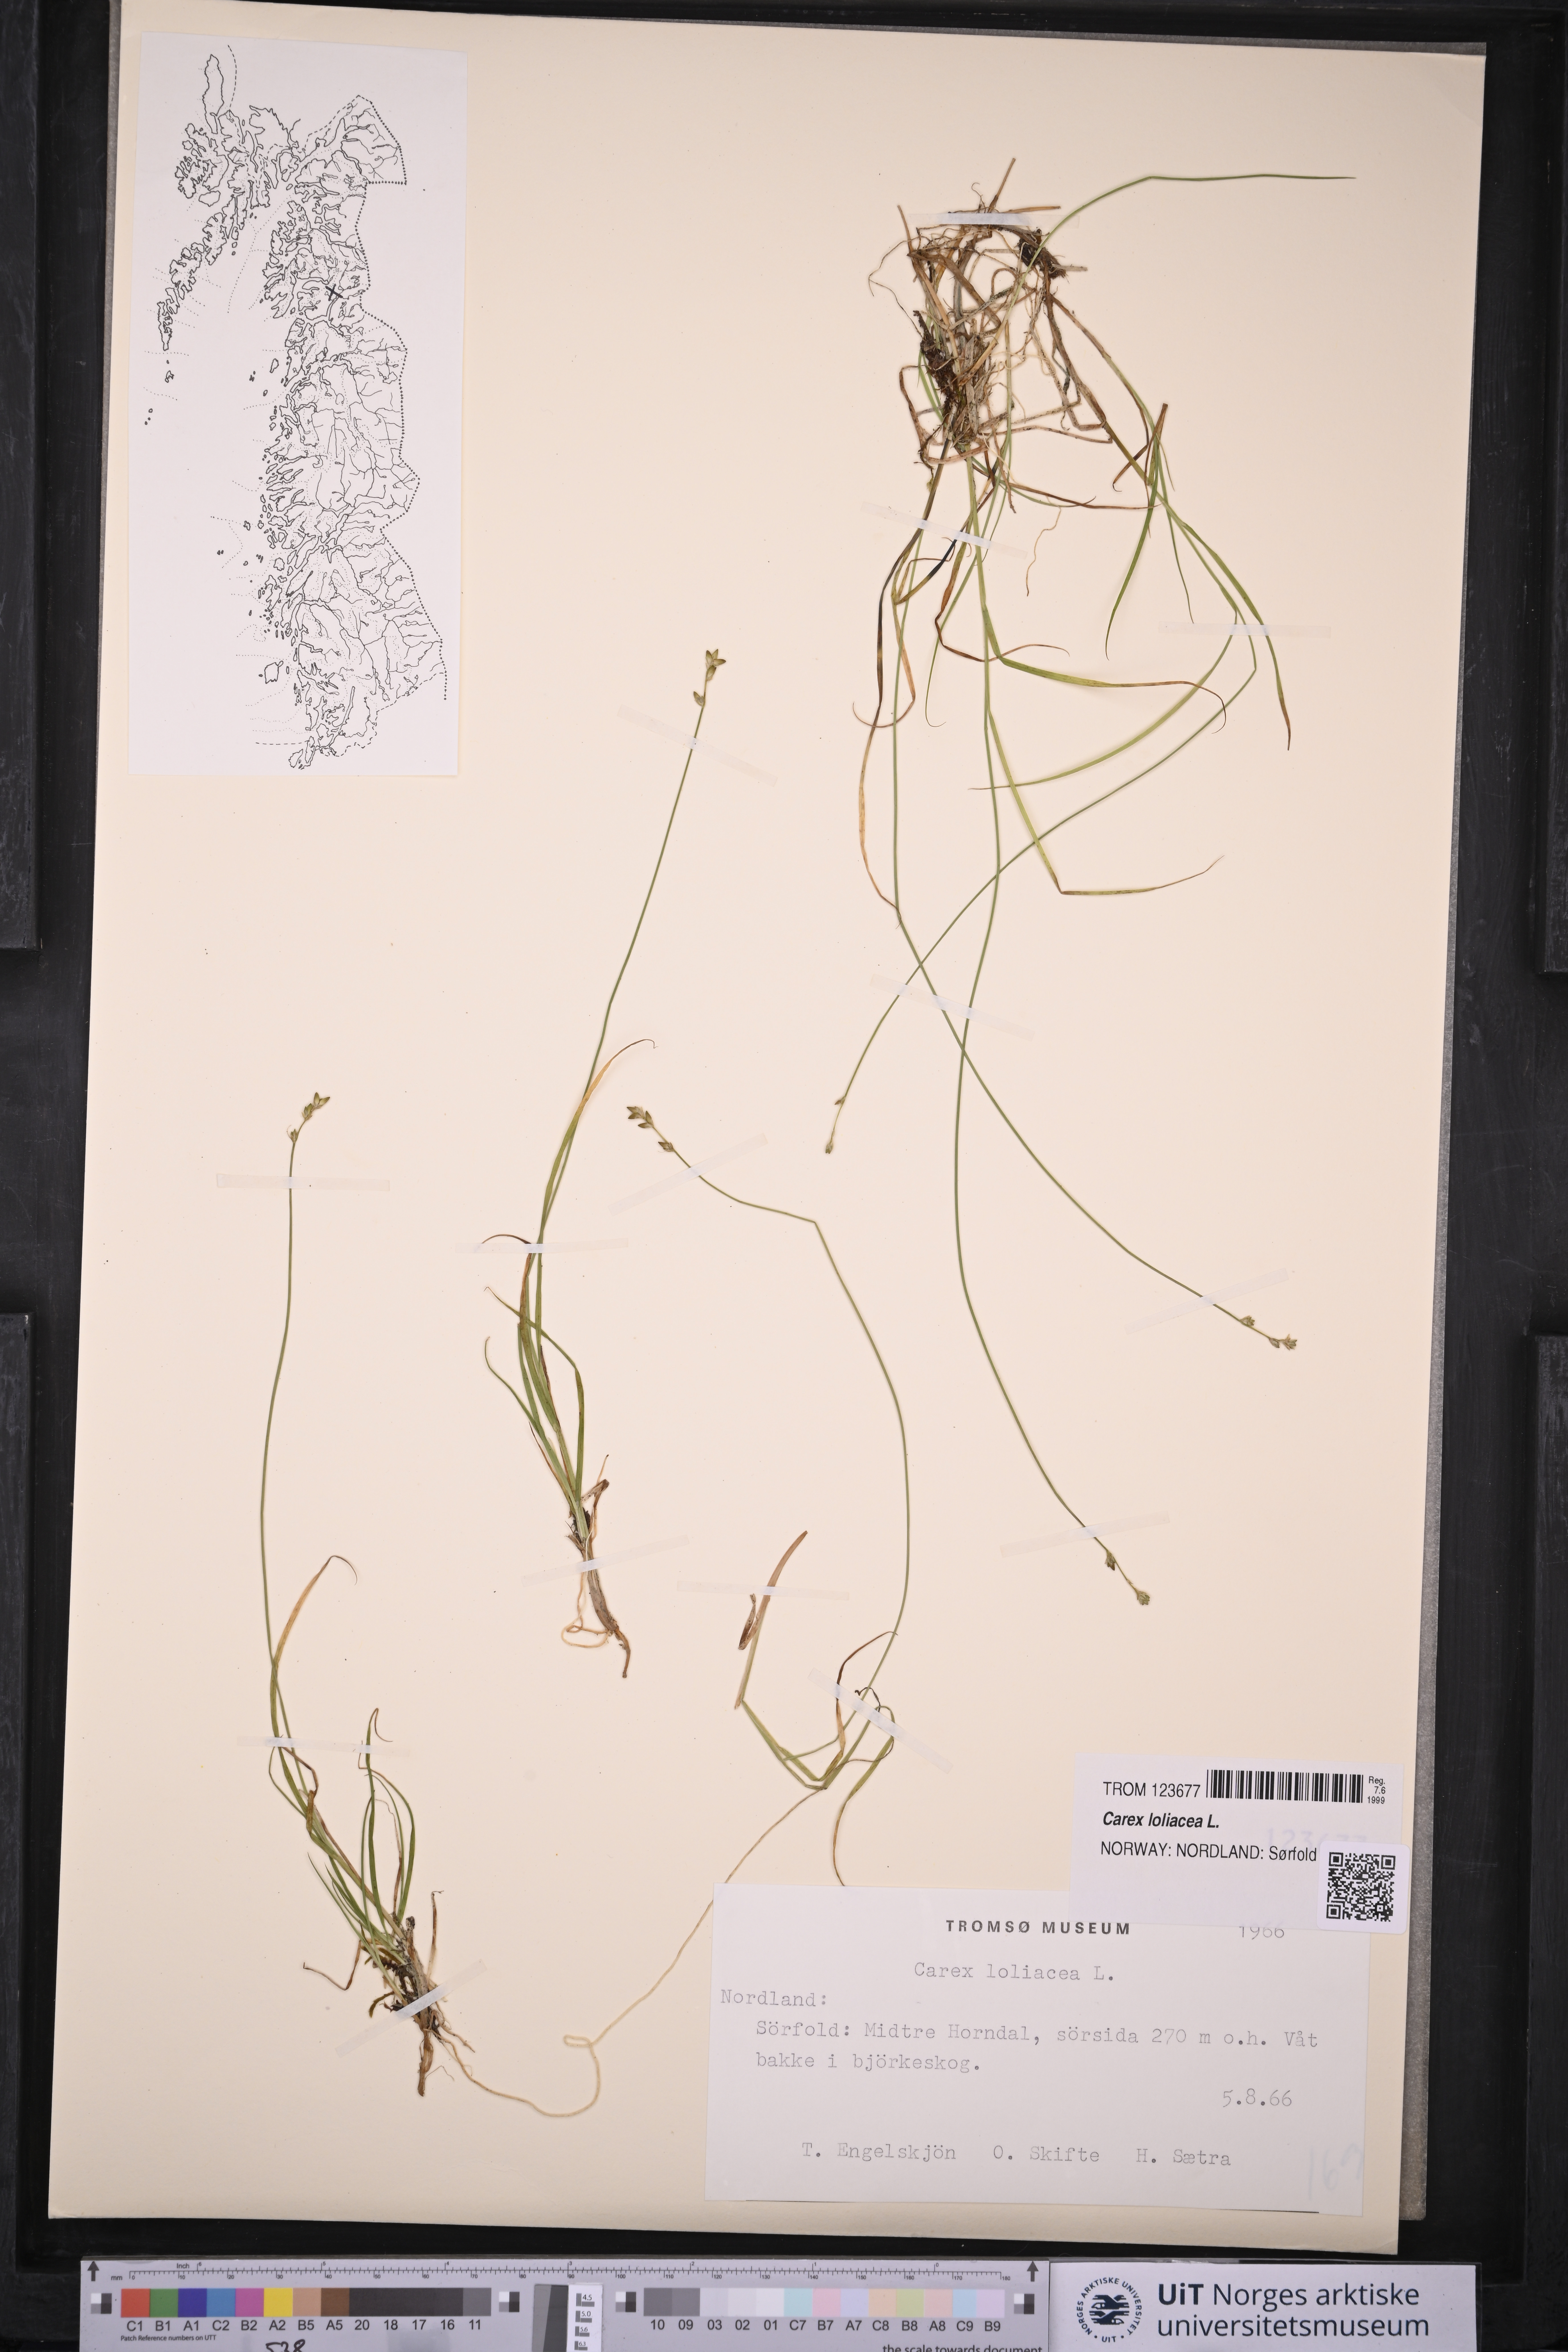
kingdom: Plantae
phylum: Tracheophyta
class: Liliopsida
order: Poales
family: Cyperaceae
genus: Carex
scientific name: Carex loliacea
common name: Ryegrass sedge
